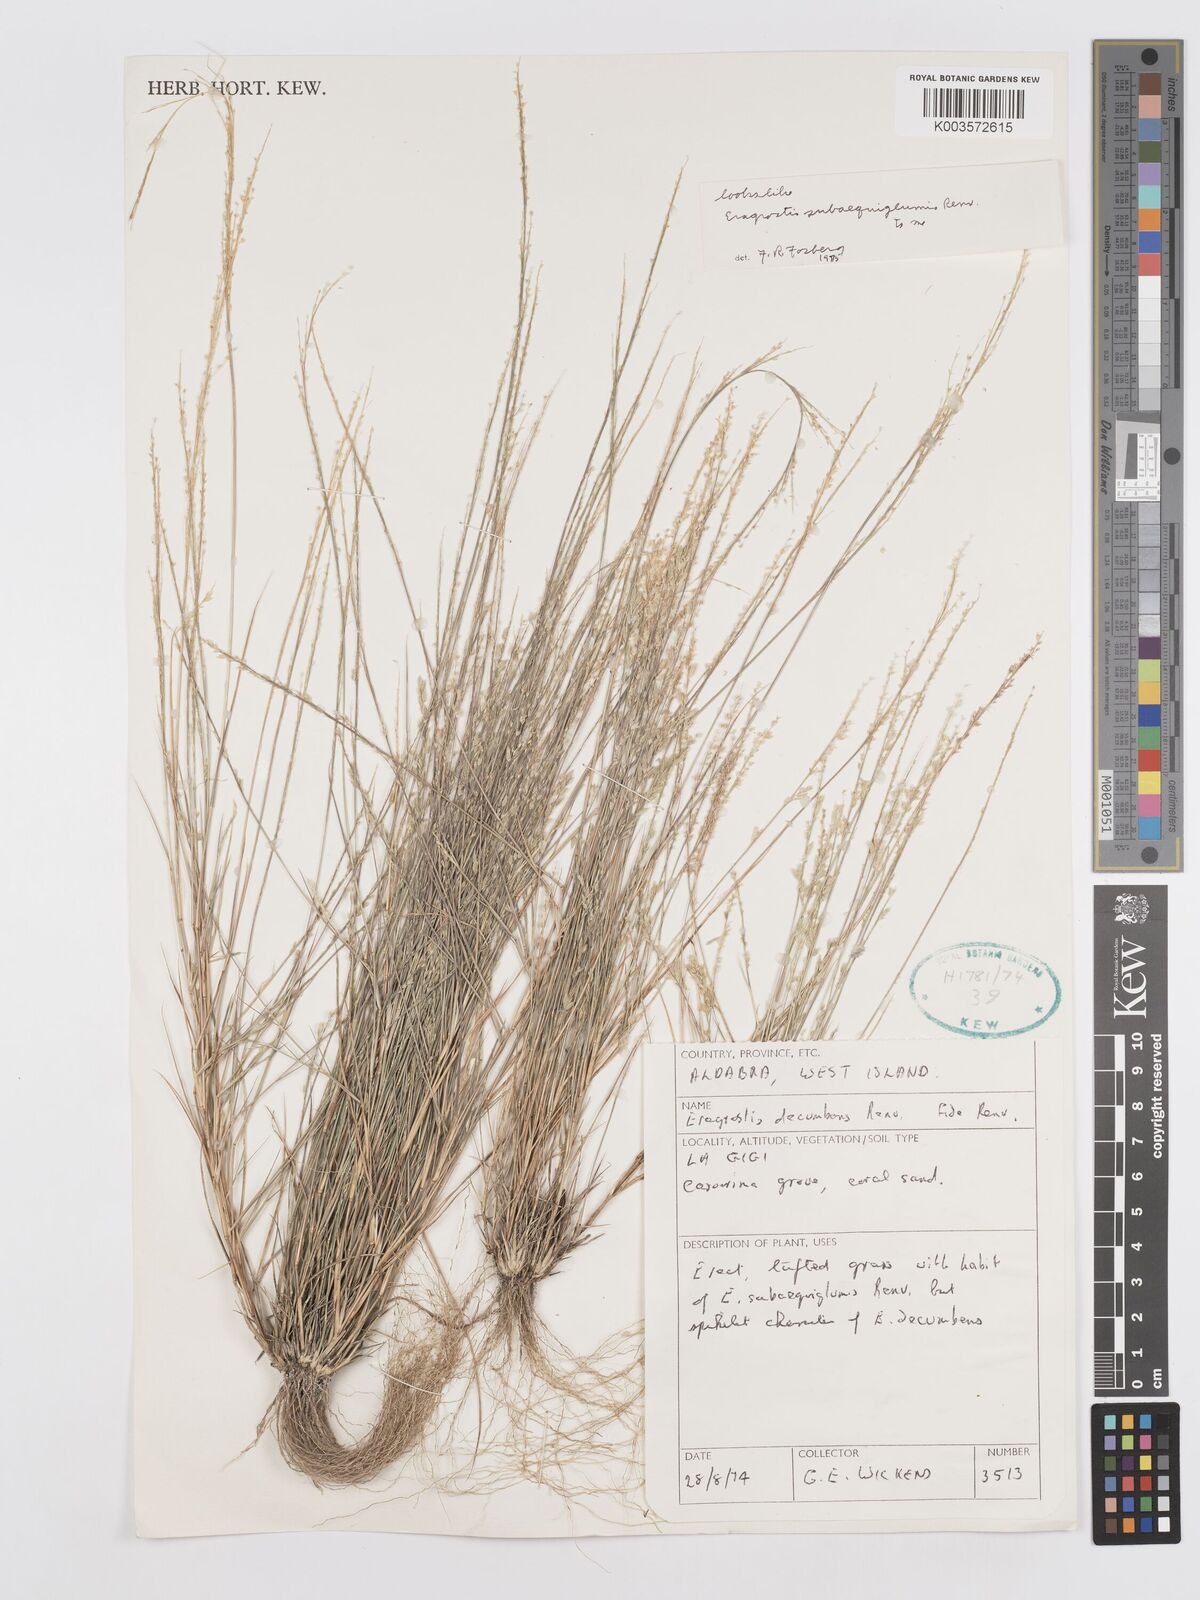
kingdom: Plantae
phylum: Tracheophyta
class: Liliopsida
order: Poales
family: Poaceae
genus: Eragrostis
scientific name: Eragrostis subaequiglumis
